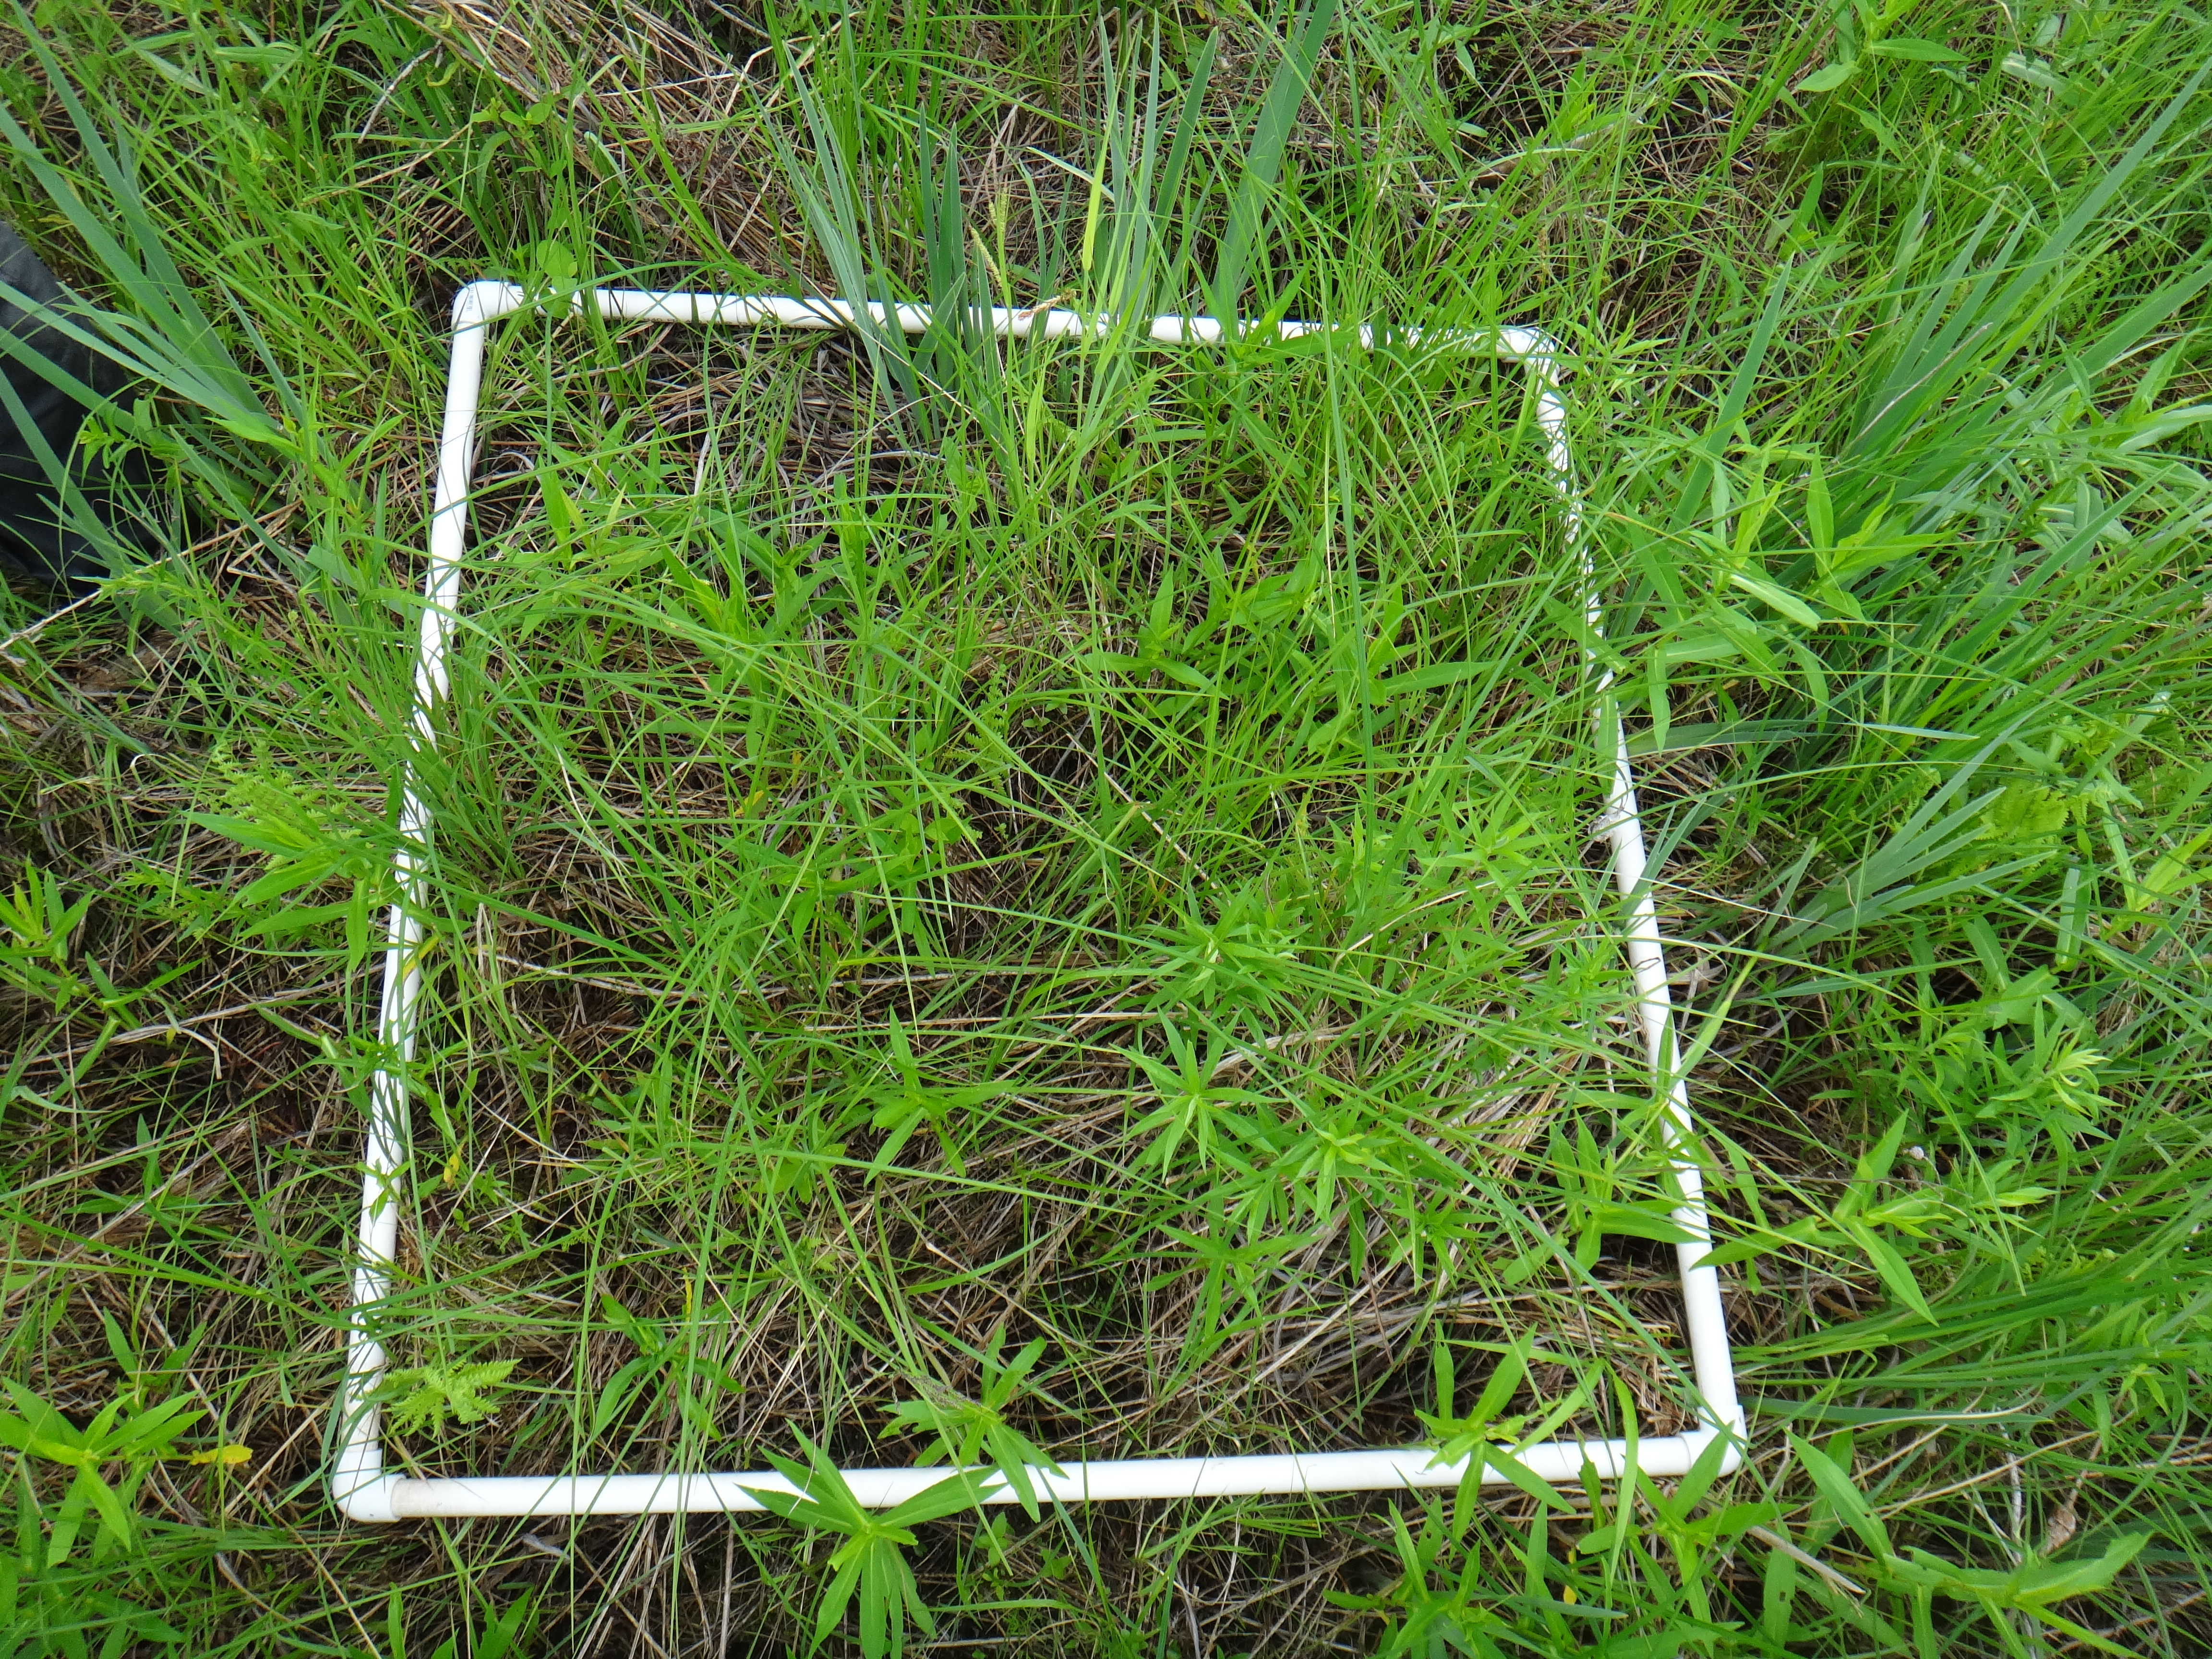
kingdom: Plantae
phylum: Tracheophyta
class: Magnoliopsida
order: Apiales
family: Apiaceae
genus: Oxypolis
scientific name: Oxypolis rigidior
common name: Cowbane
